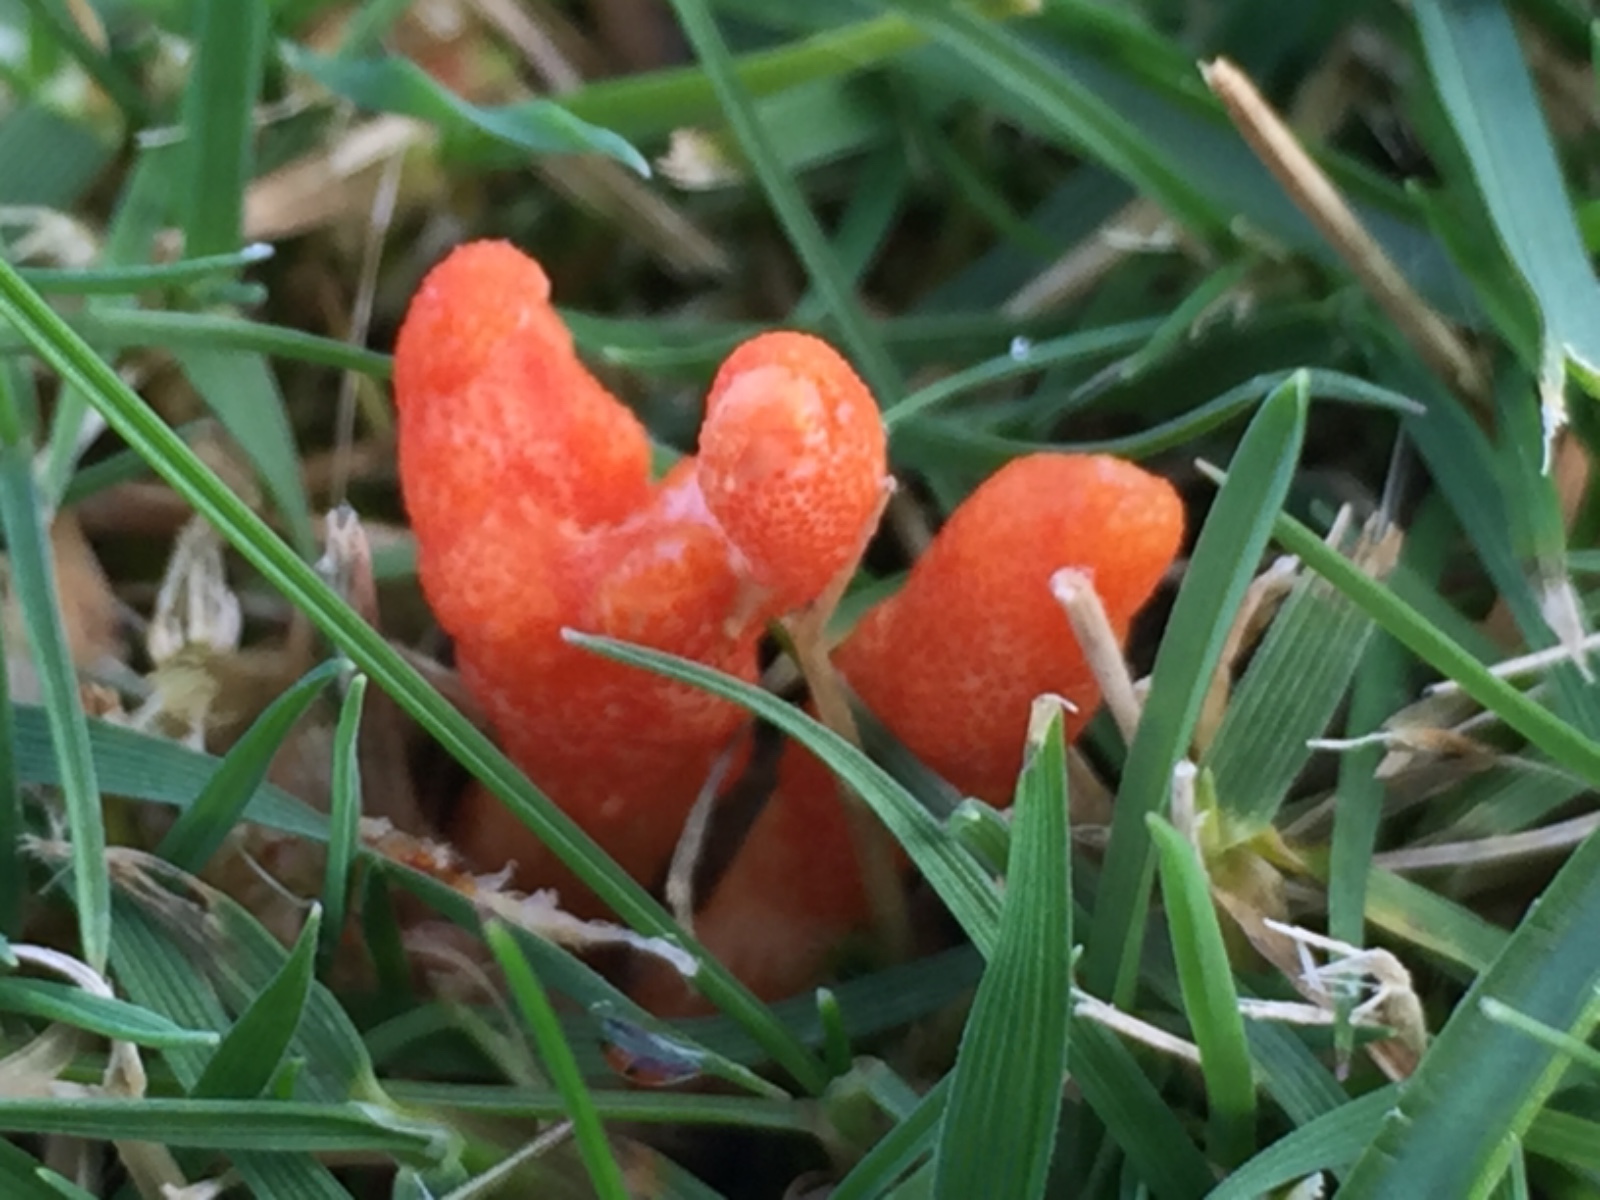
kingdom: Fungi
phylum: Ascomycota
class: Sordariomycetes
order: Hypocreales
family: Cordycipitaceae
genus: Cordyceps
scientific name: Cordyceps militaris
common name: puppe-snyltekølle
